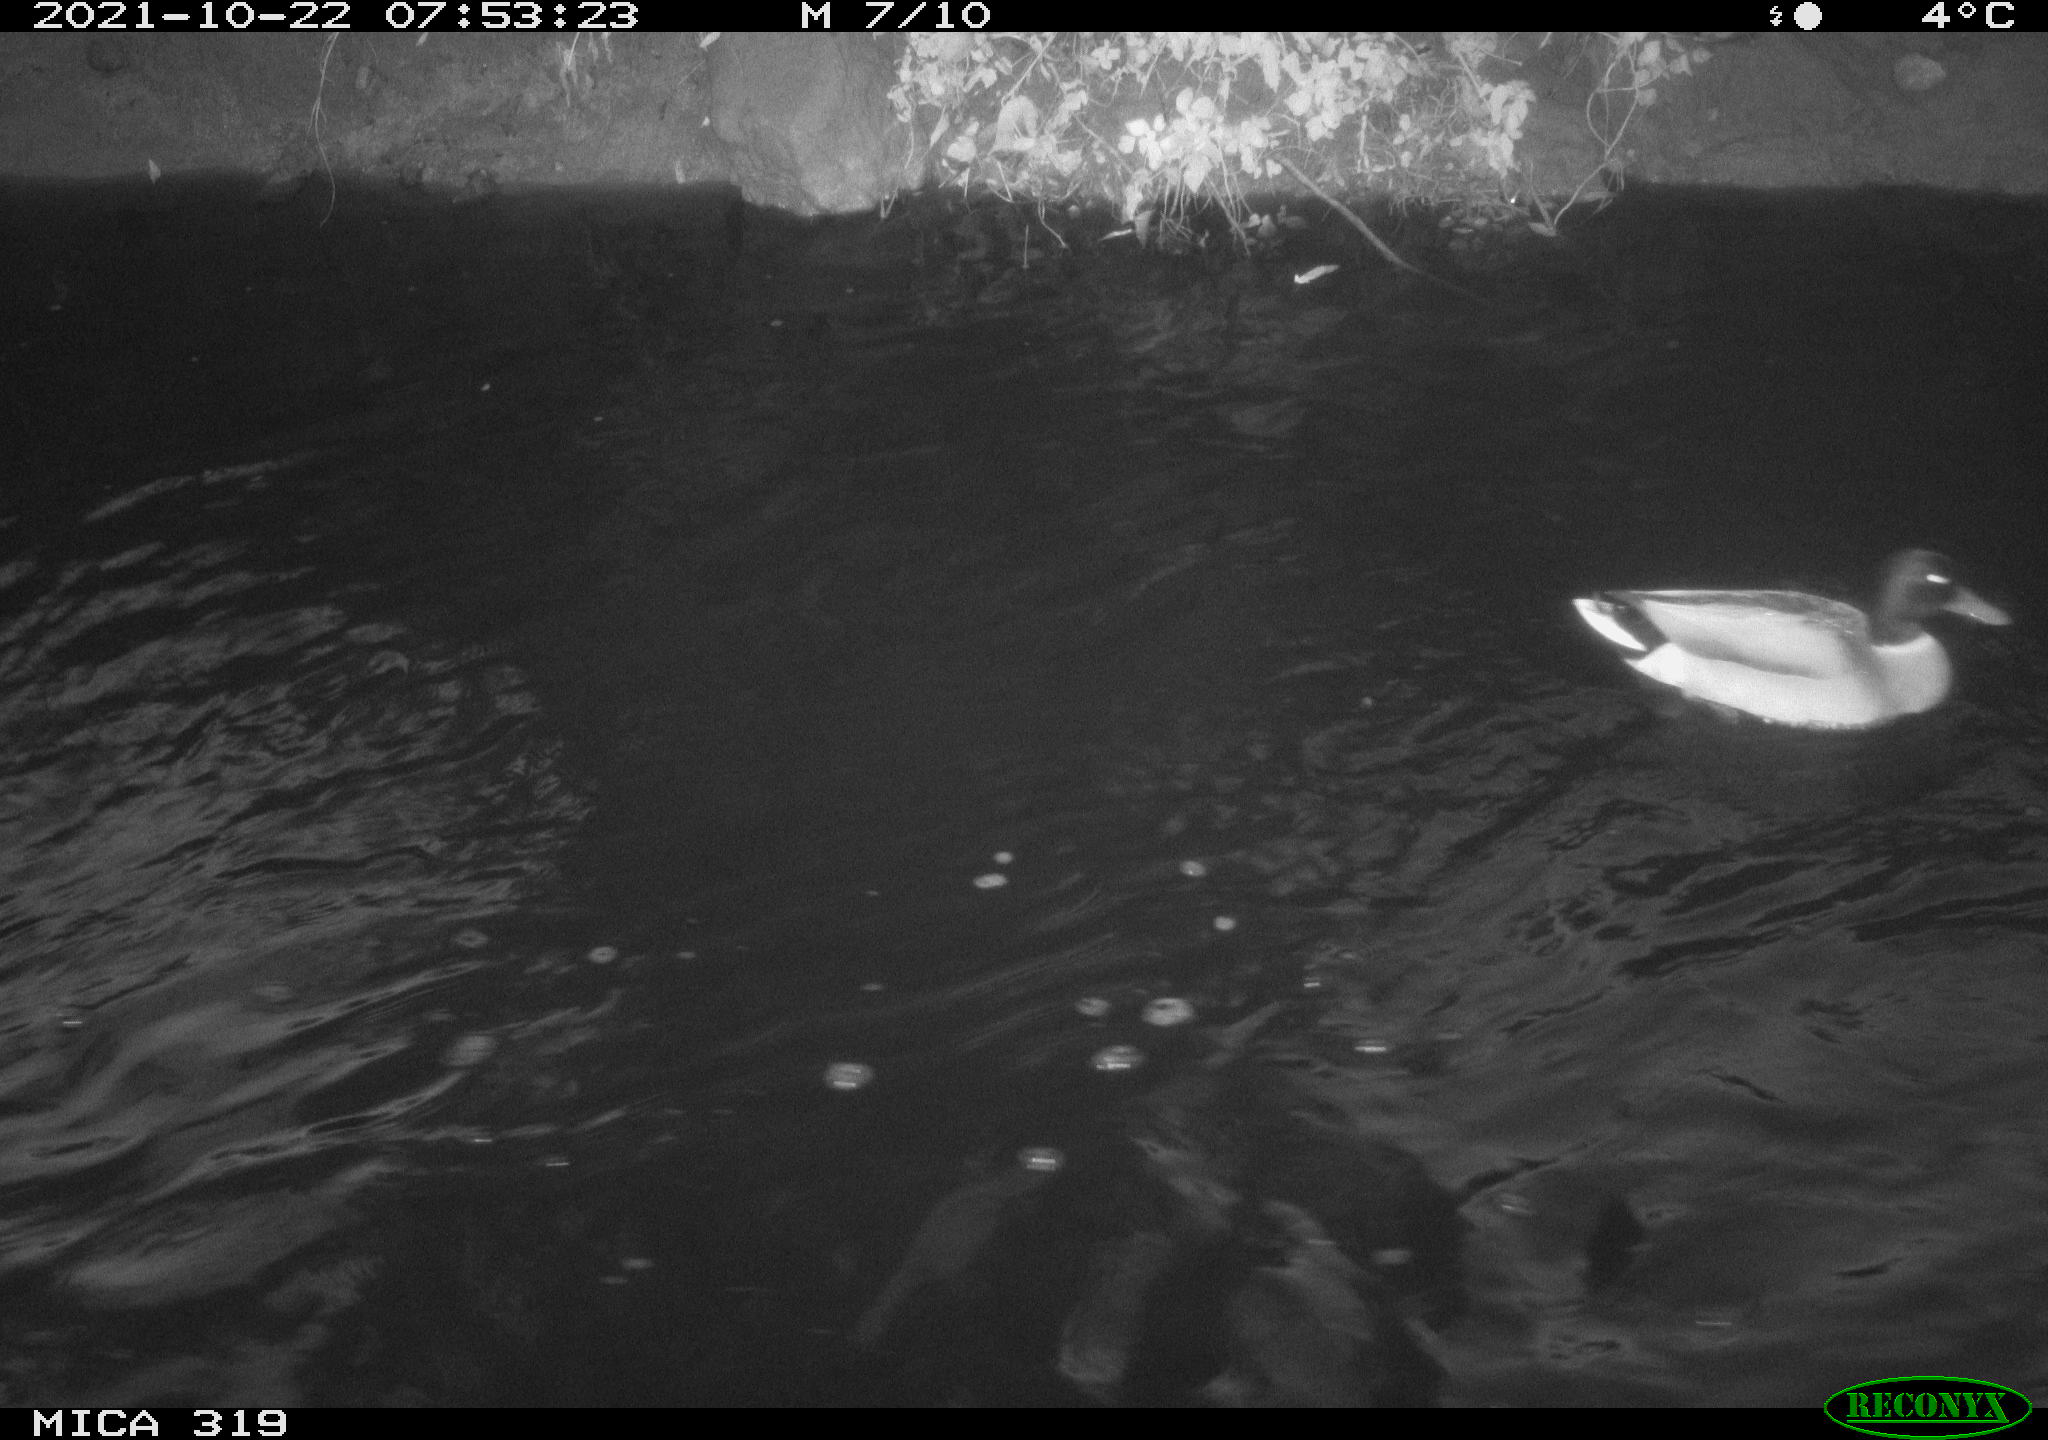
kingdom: Animalia
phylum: Chordata
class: Aves
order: Anseriformes
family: Anatidae
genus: Anas
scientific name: Anas platyrhynchos
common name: Mallard
